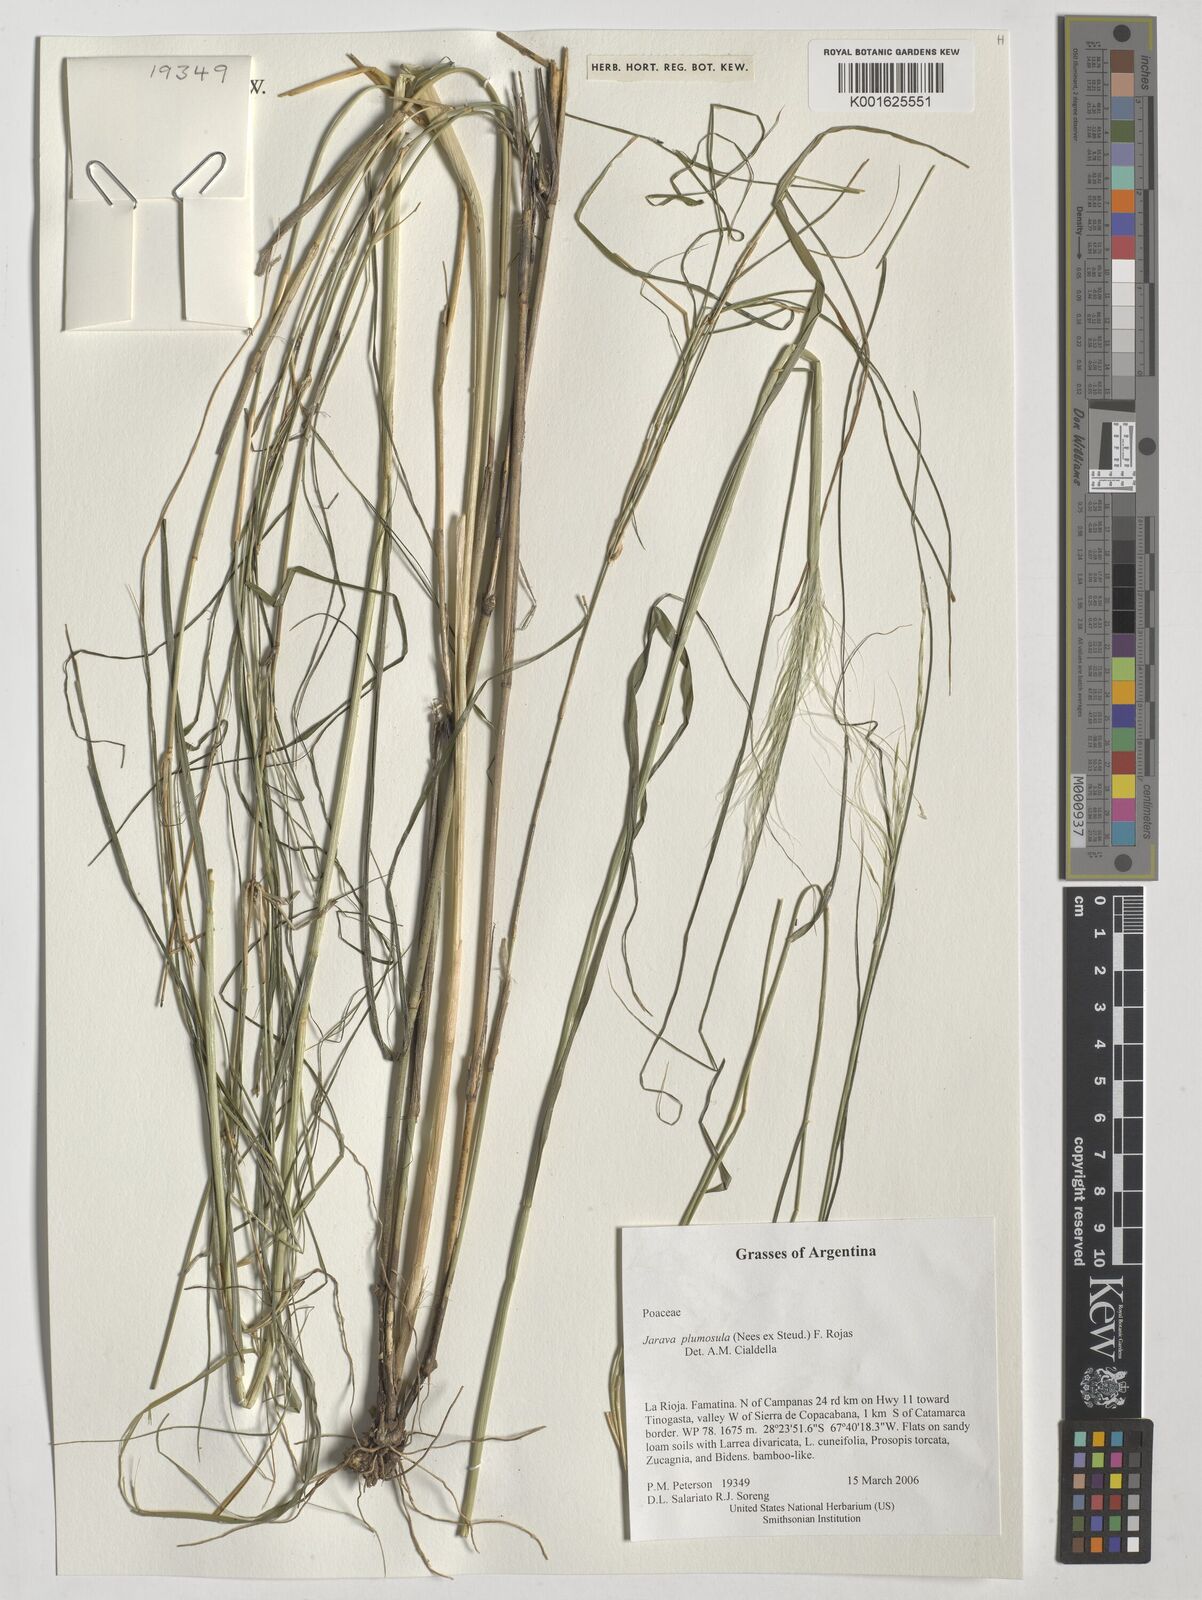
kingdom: Plantae
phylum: Tracheophyta
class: Liliopsida
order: Poales
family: Poaceae
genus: Stipa
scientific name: Stipa plumosa
